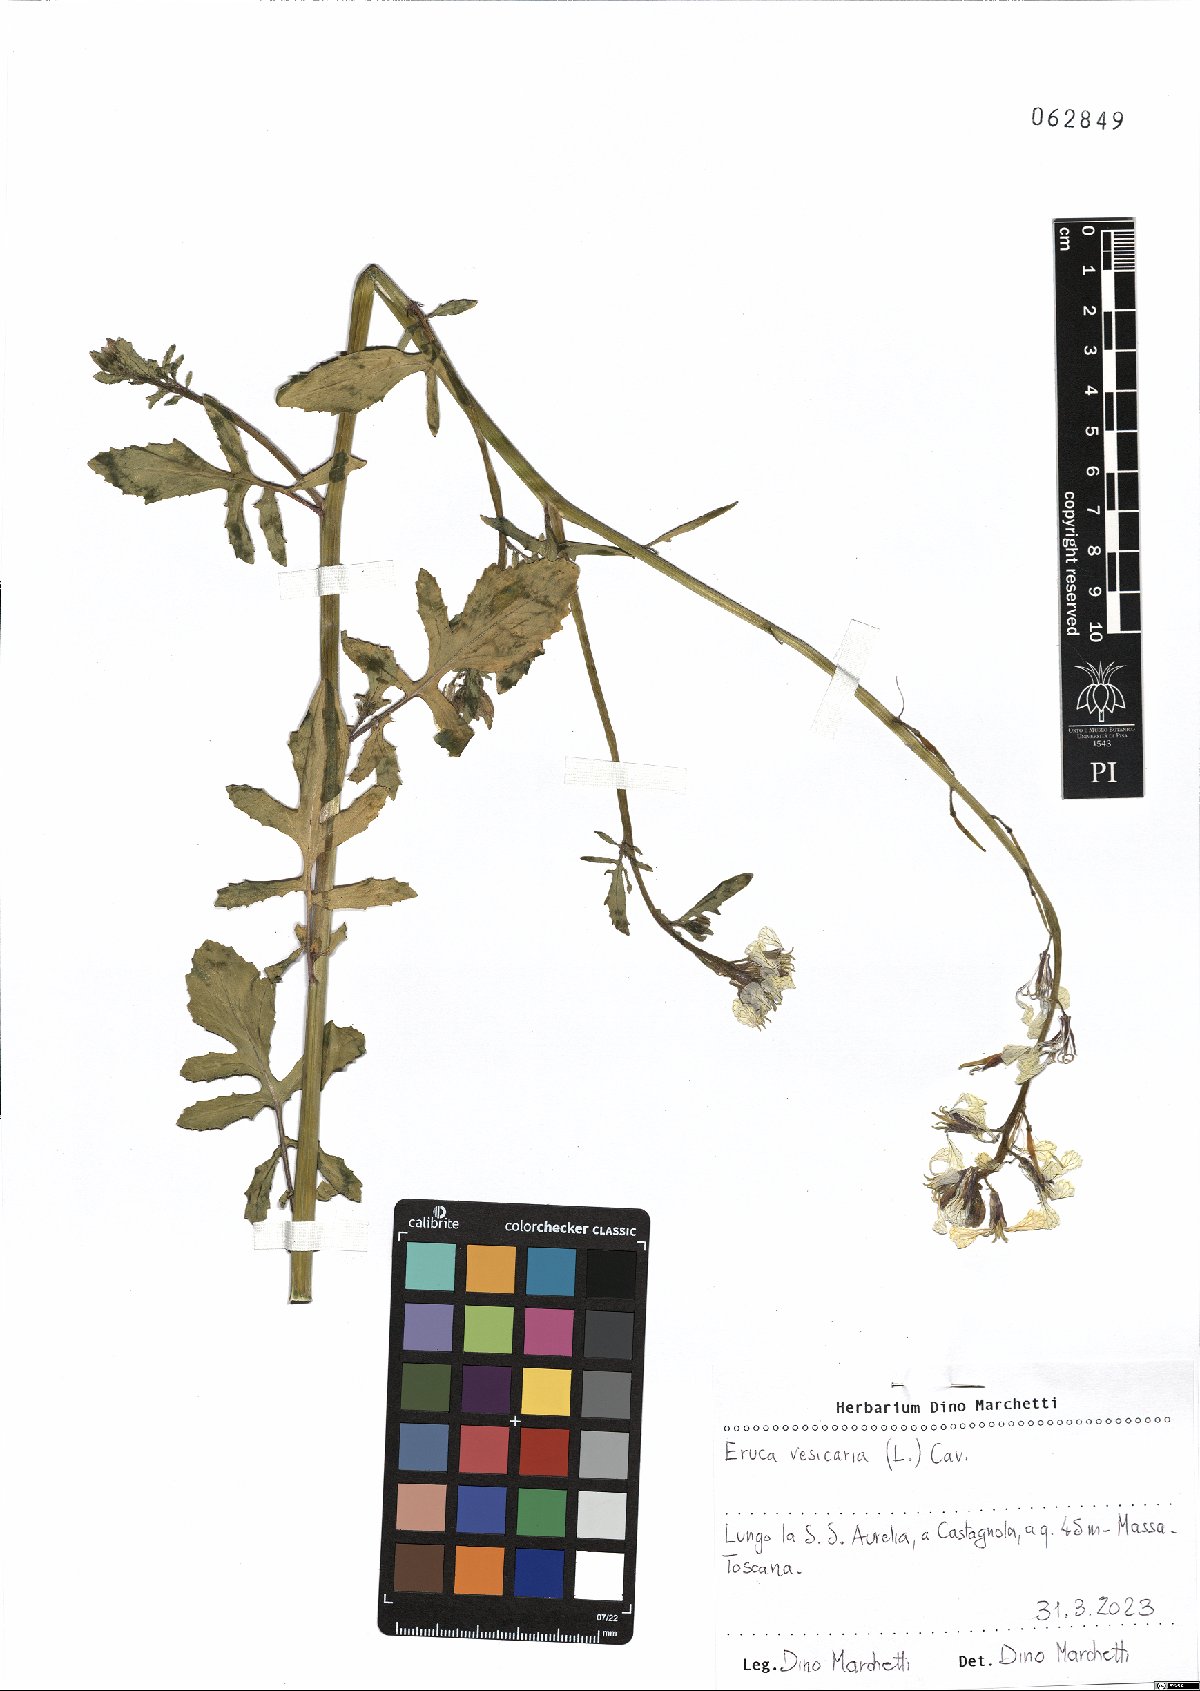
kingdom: Plantae
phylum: Tracheophyta
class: Magnoliopsida
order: Brassicales
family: Brassicaceae
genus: Eruca
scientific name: Eruca vesicaria
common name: Garden rocket
